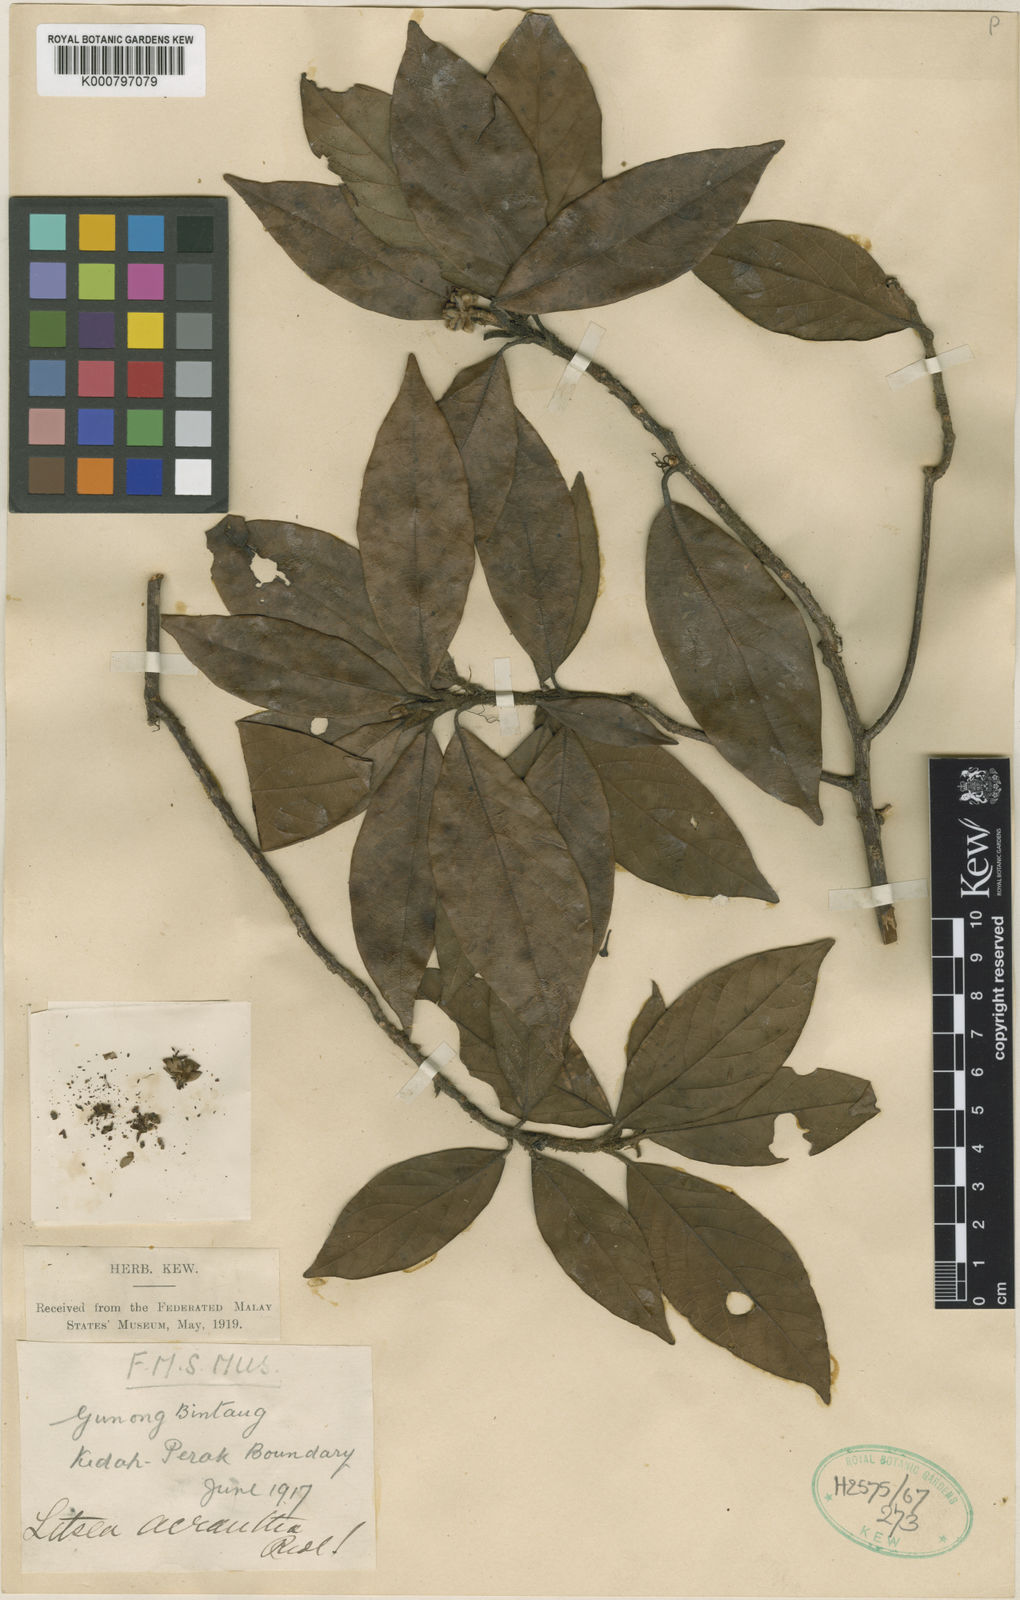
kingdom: Plantae
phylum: Tracheophyta
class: Magnoliopsida
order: Laurales
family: Lauraceae
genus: Litsea
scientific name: Litsea acrantha
